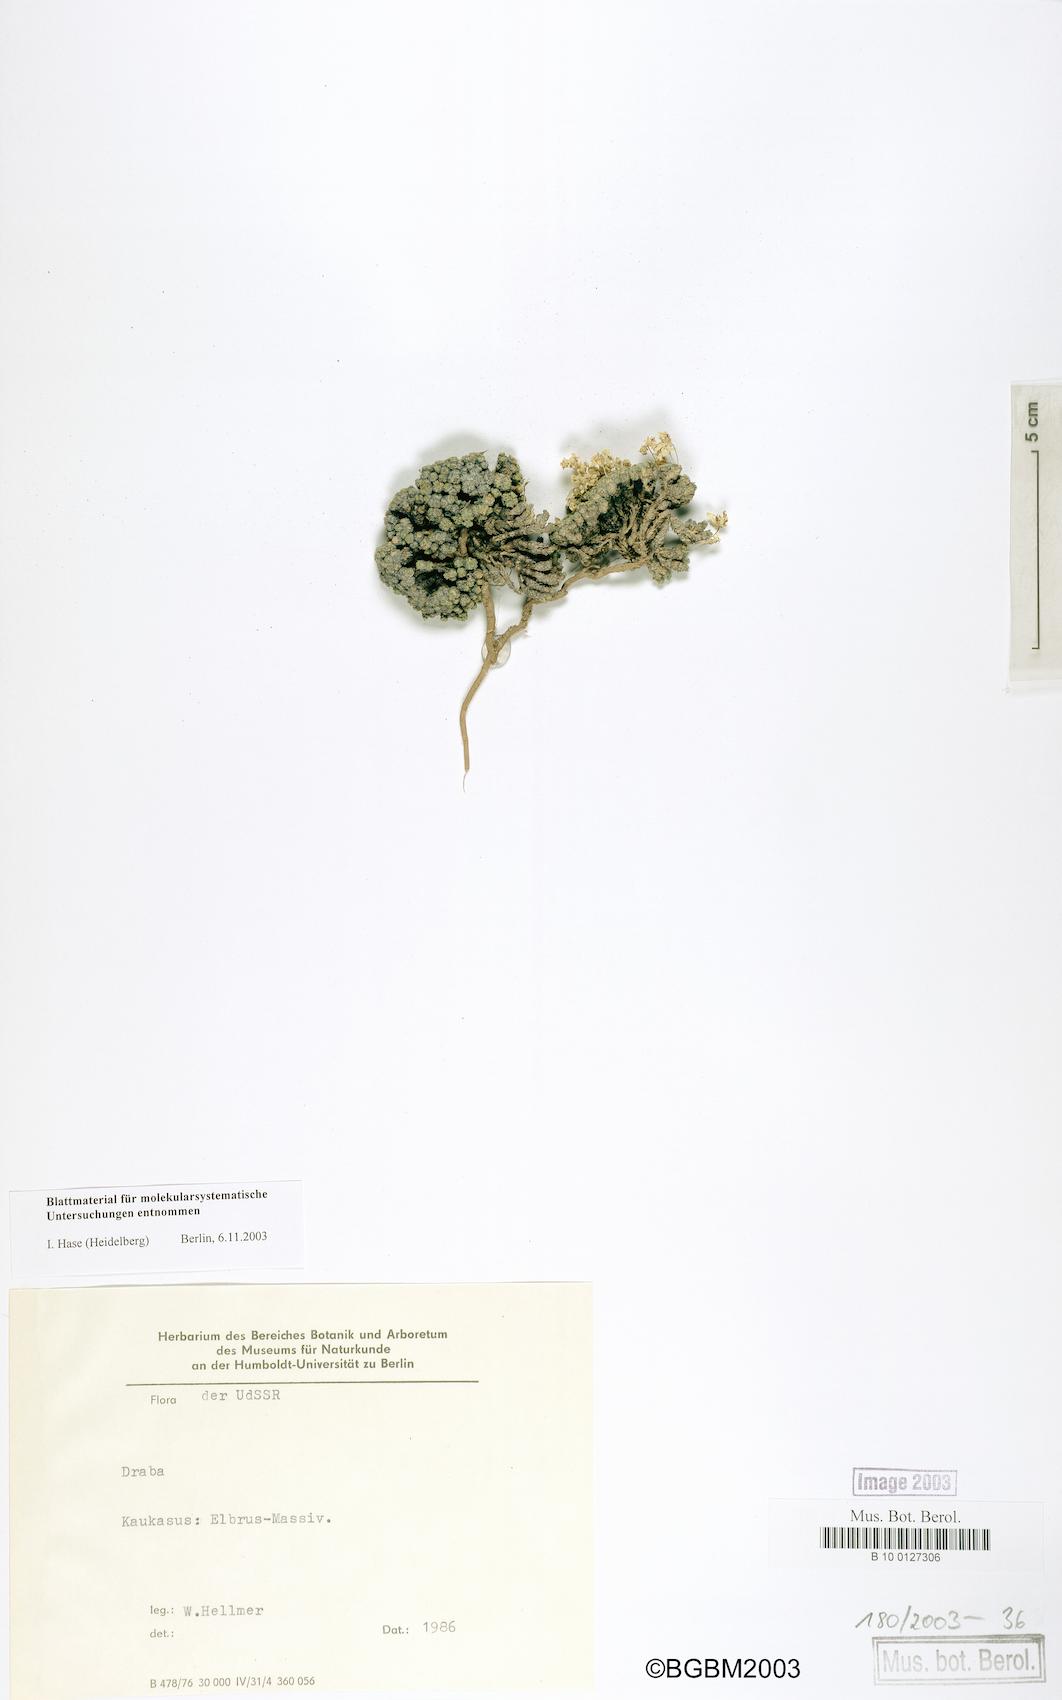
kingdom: Plantae
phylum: Tracheophyta
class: Magnoliopsida
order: Brassicales
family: Brassicaceae
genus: Draba
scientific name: Draba rigida
